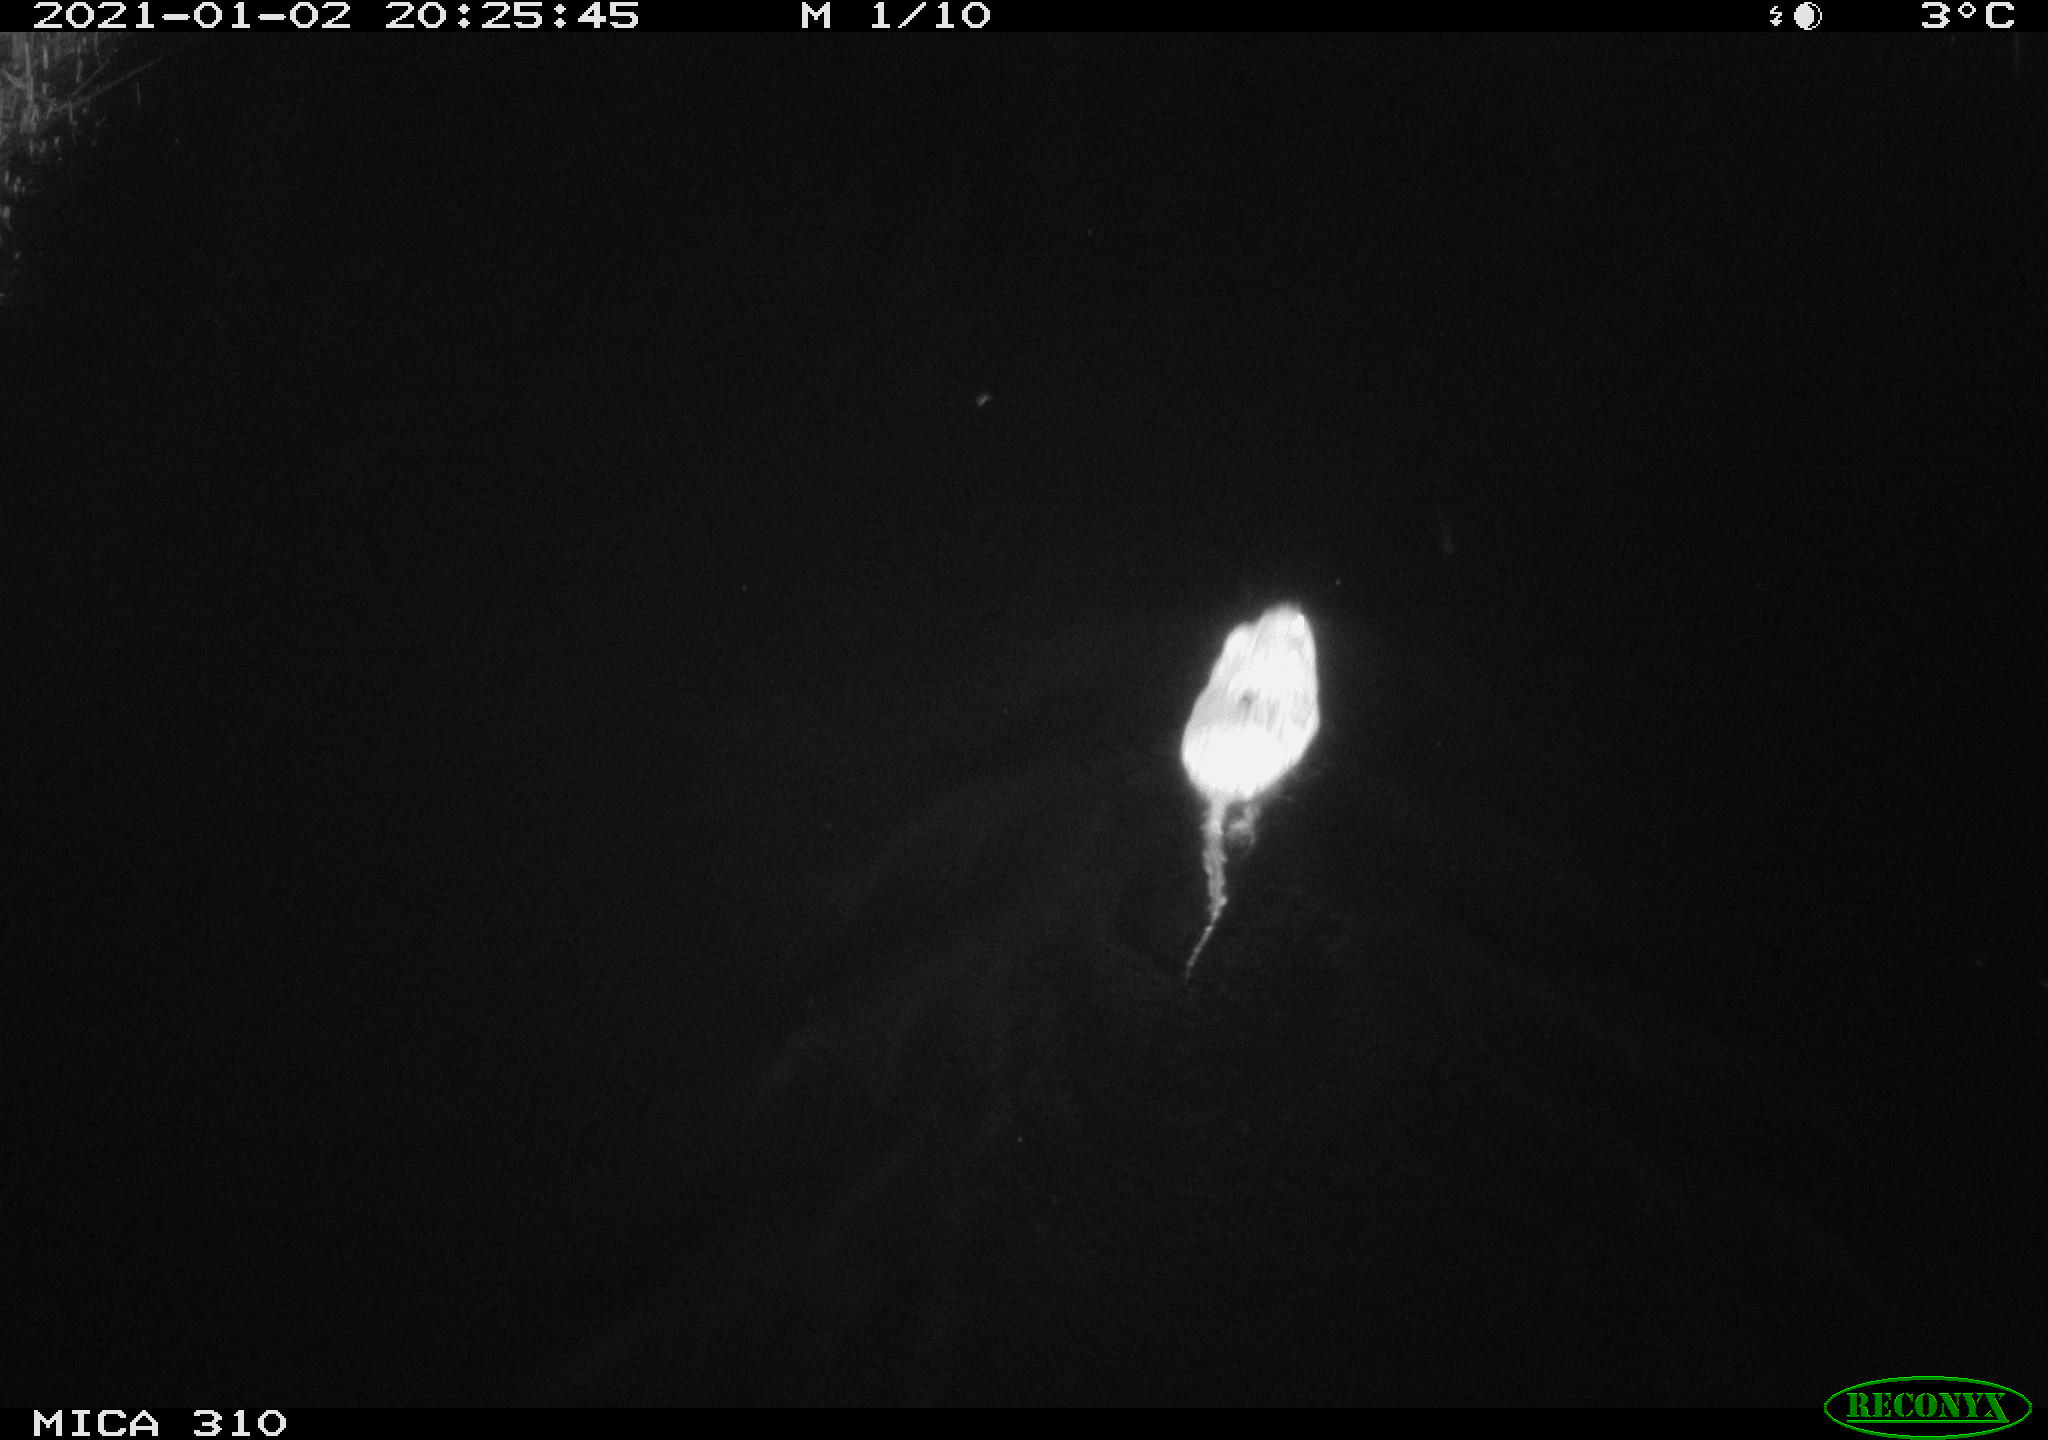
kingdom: Animalia
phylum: Chordata
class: Mammalia
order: Rodentia
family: Cricetidae
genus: Ondatra
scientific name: Ondatra zibethicus
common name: Muskrat
